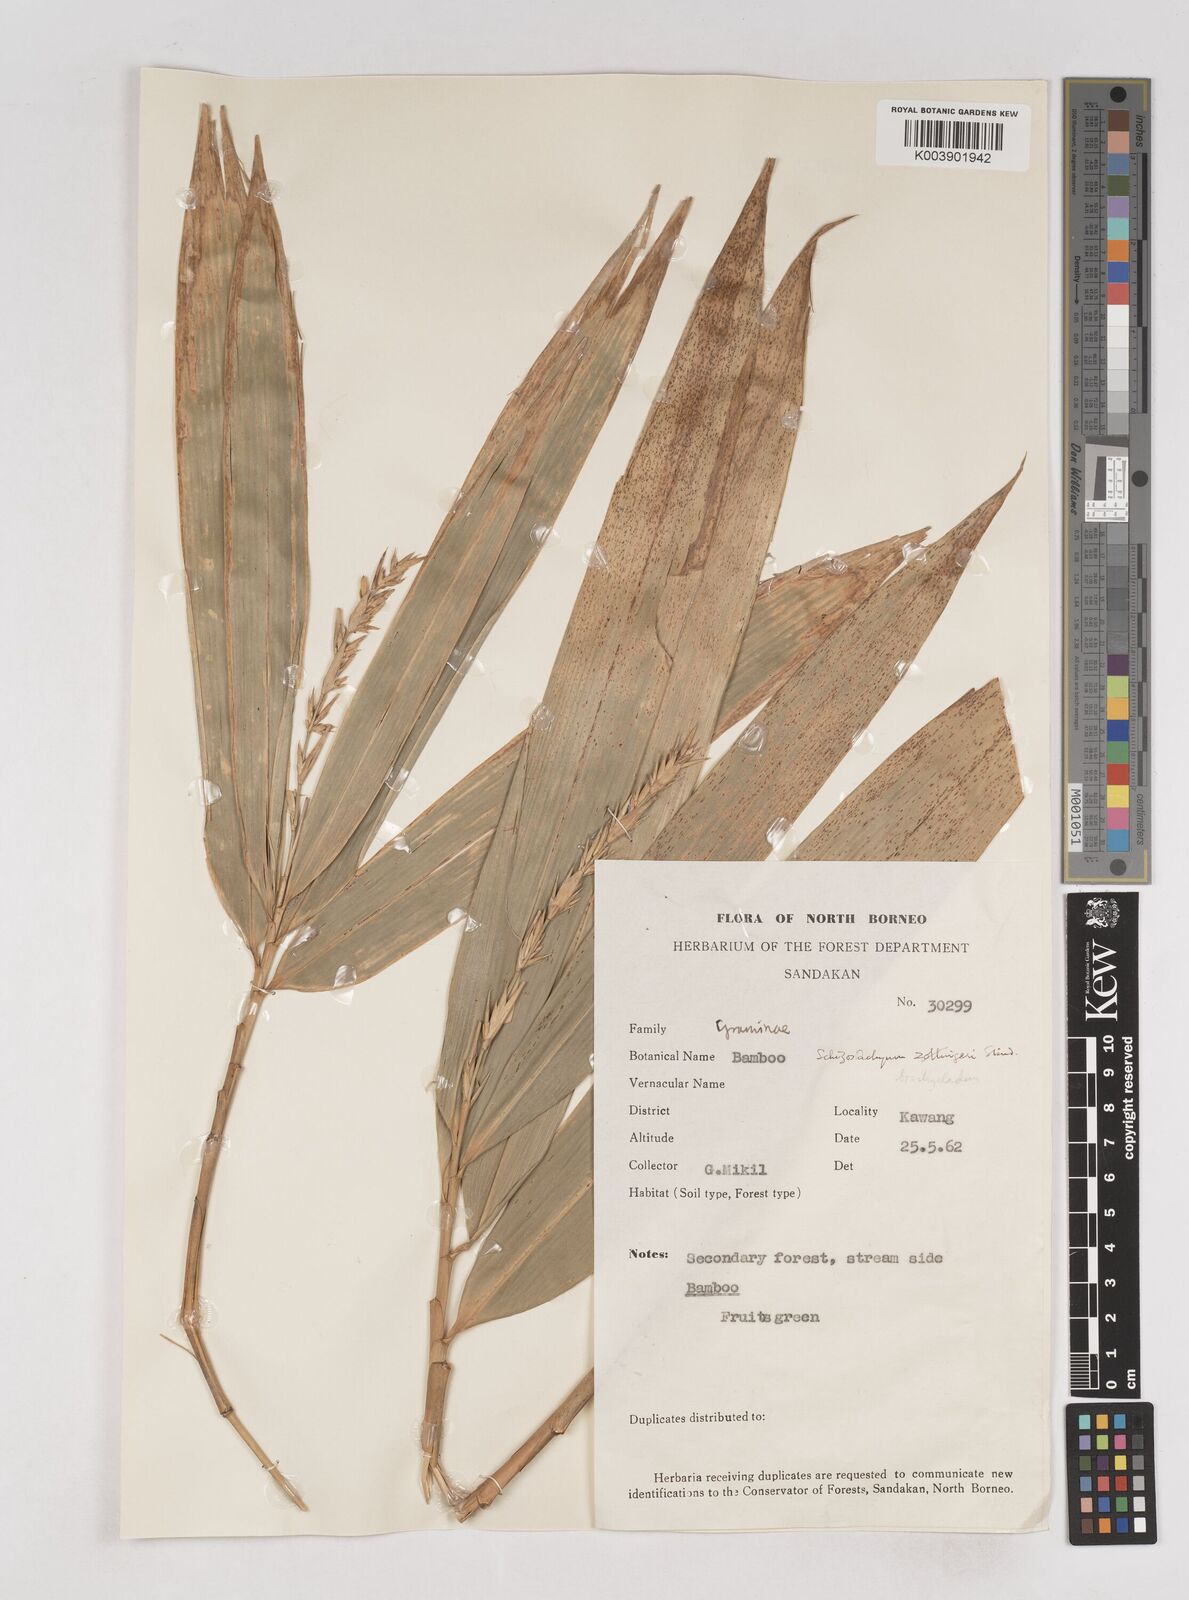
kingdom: Plantae
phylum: Tracheophyta
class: Liliopsida
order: Poales
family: Poaceae
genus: Schizostachyum
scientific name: Schizostachyum brachycladum
